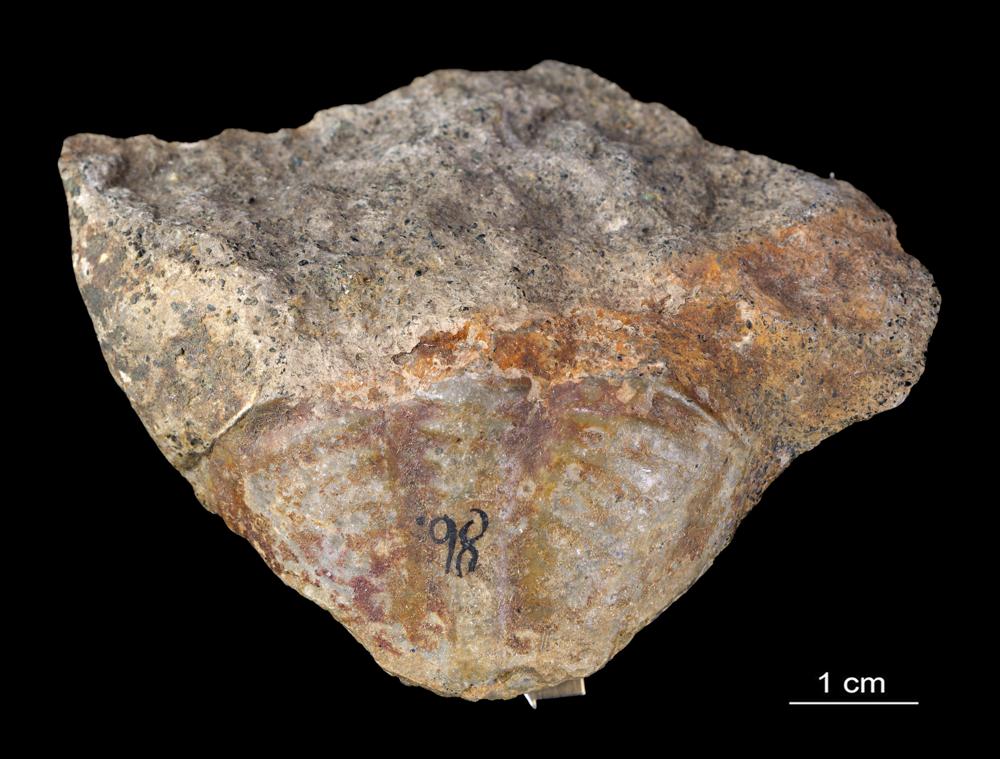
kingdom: Animalia
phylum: Arthropoda
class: Trilobita
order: Asaphida
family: Asaphidae
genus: Asaphus
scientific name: Asaphus
